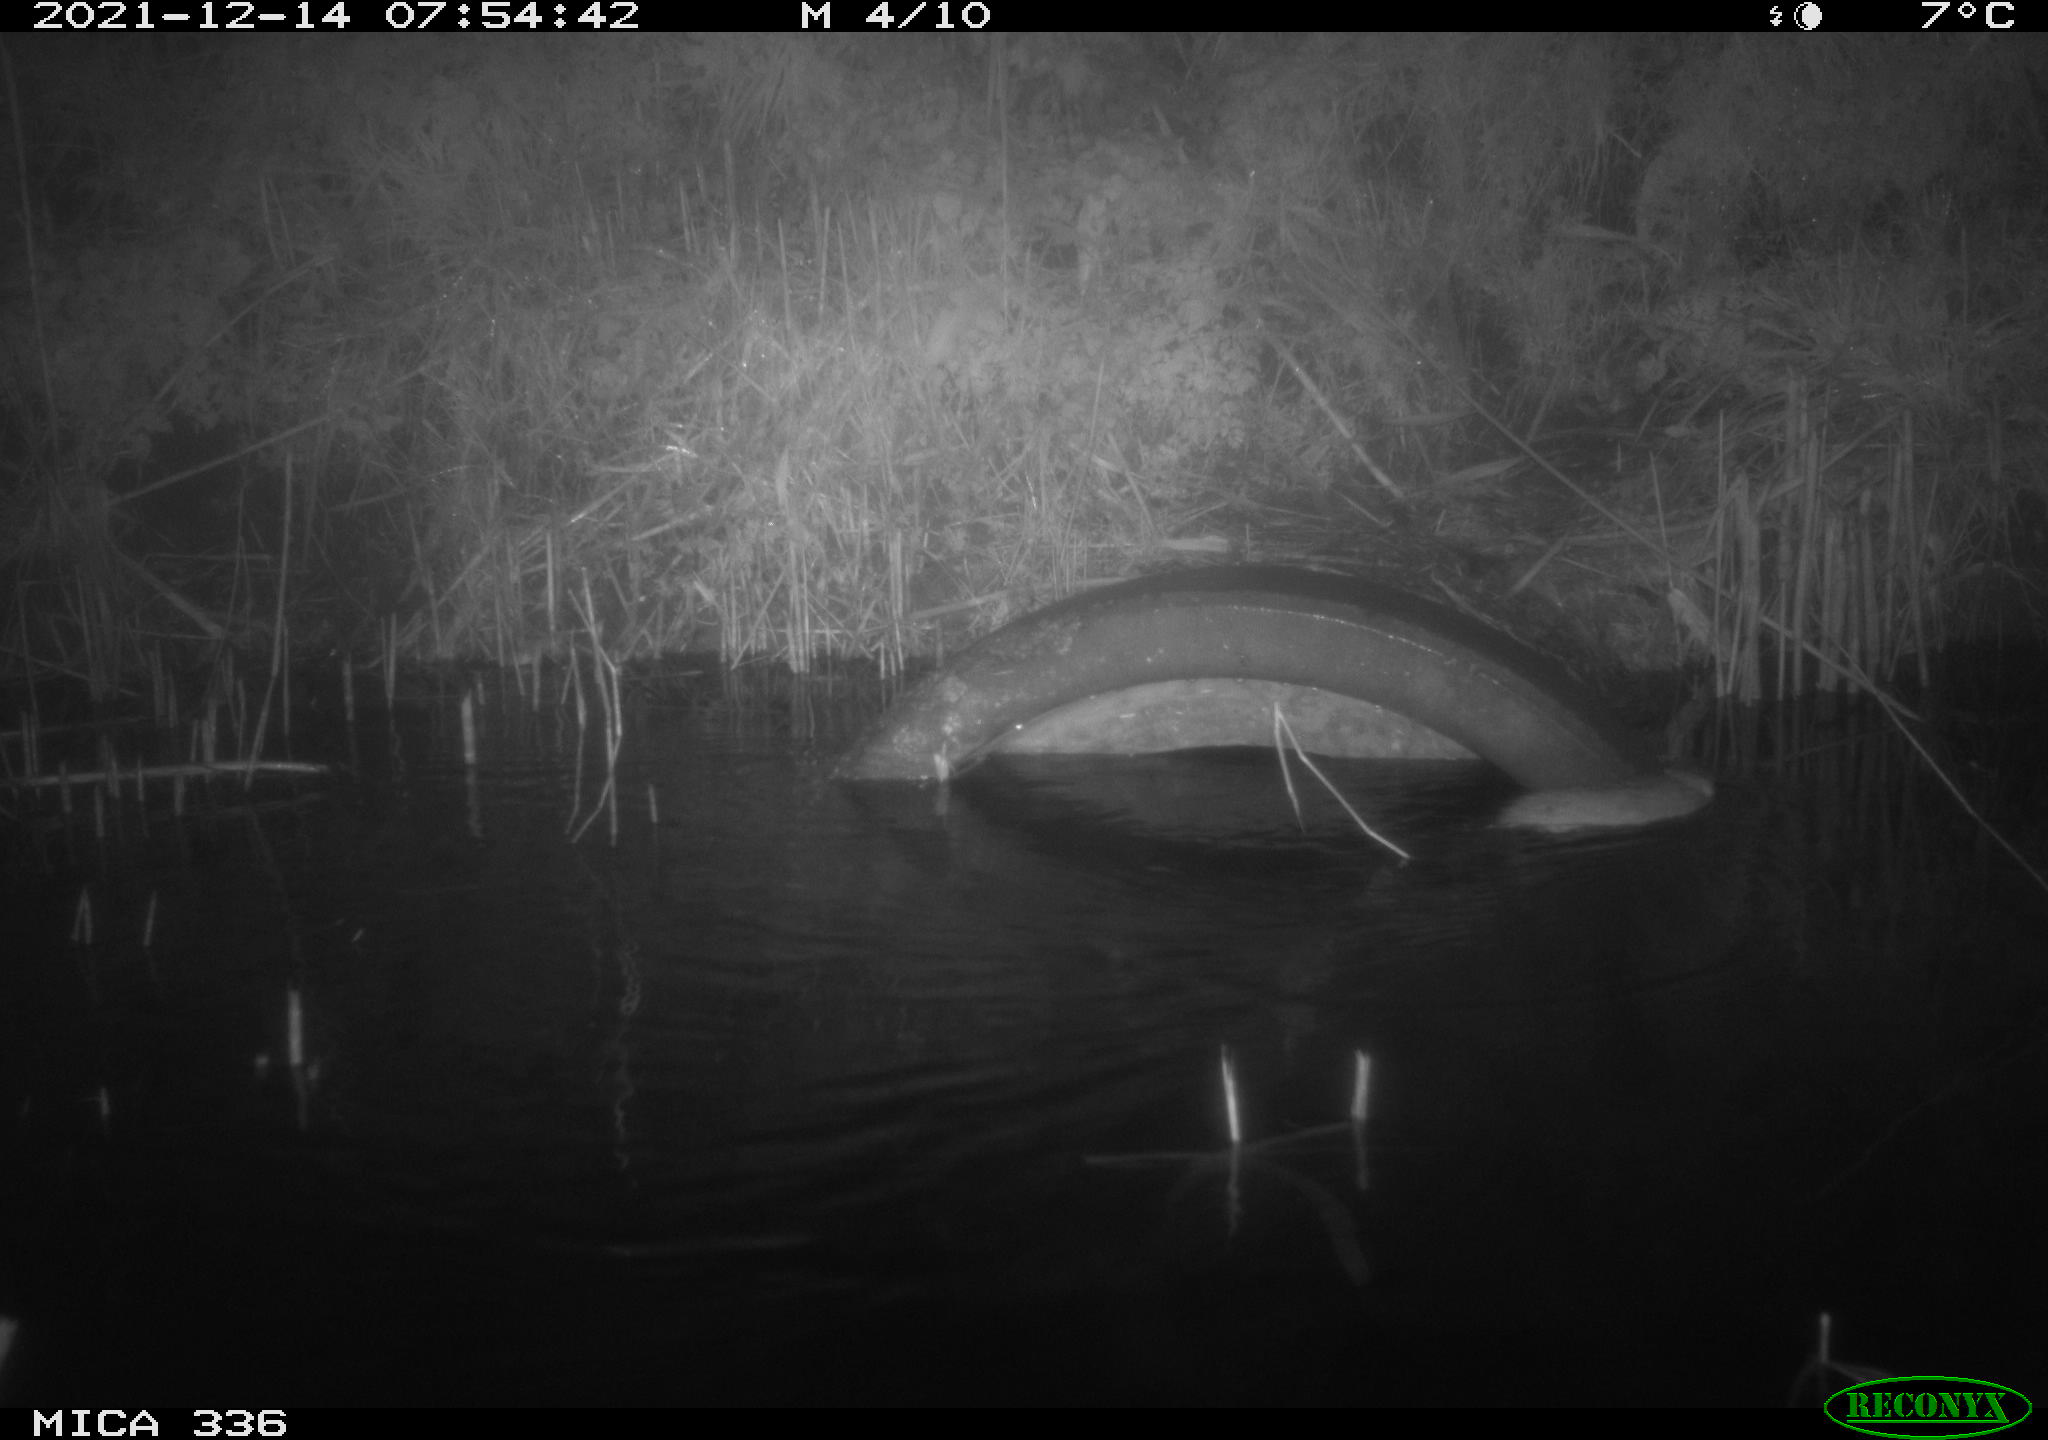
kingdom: Animalia
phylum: Chordata
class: Mammalia
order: Rodentia
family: Muridae
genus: Rattus
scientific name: Rattus norvegicus
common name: Brown rat
